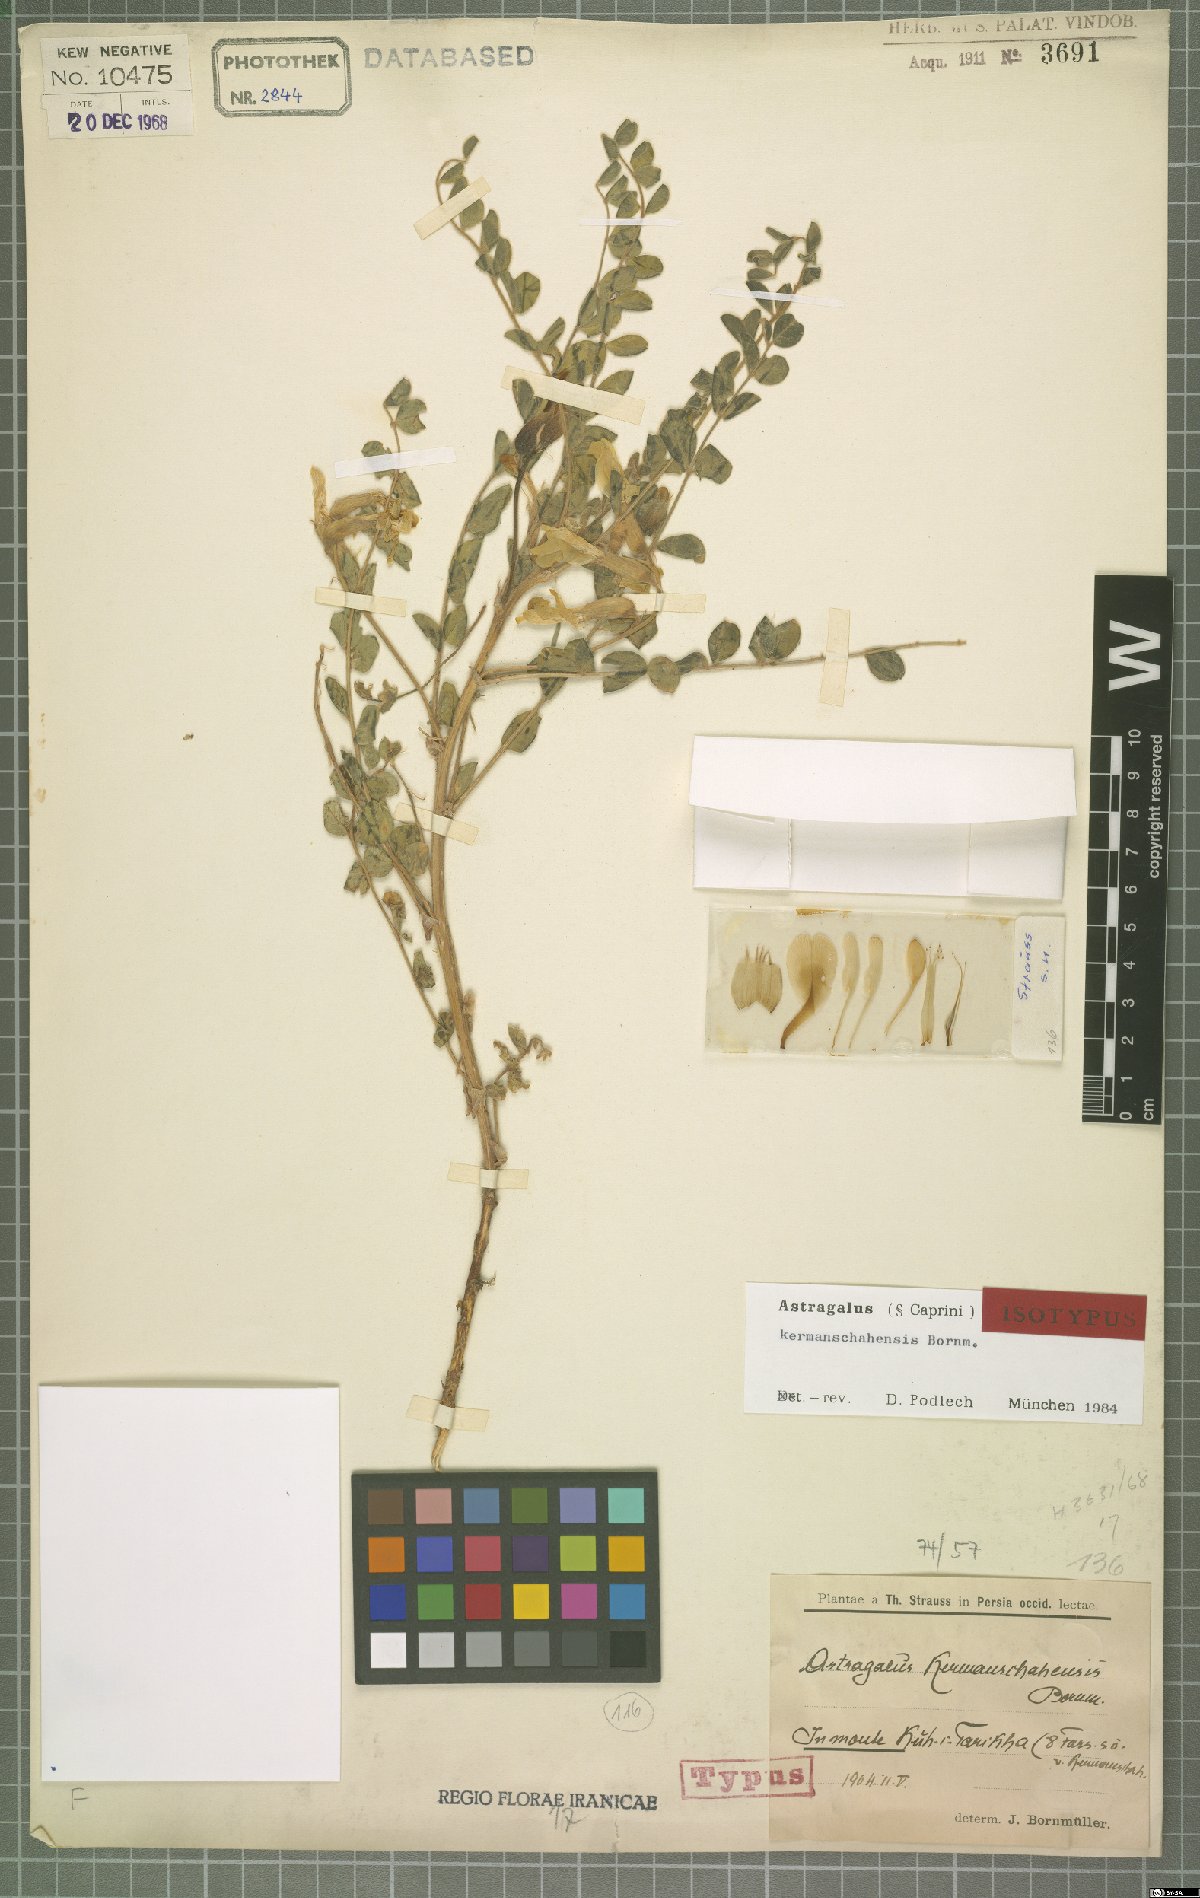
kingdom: Plantae
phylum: Tracheophyta
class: Magnoliopsida
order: Fabales
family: Fabaceae
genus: Astragalus
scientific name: Astragalus kermanschahensis
